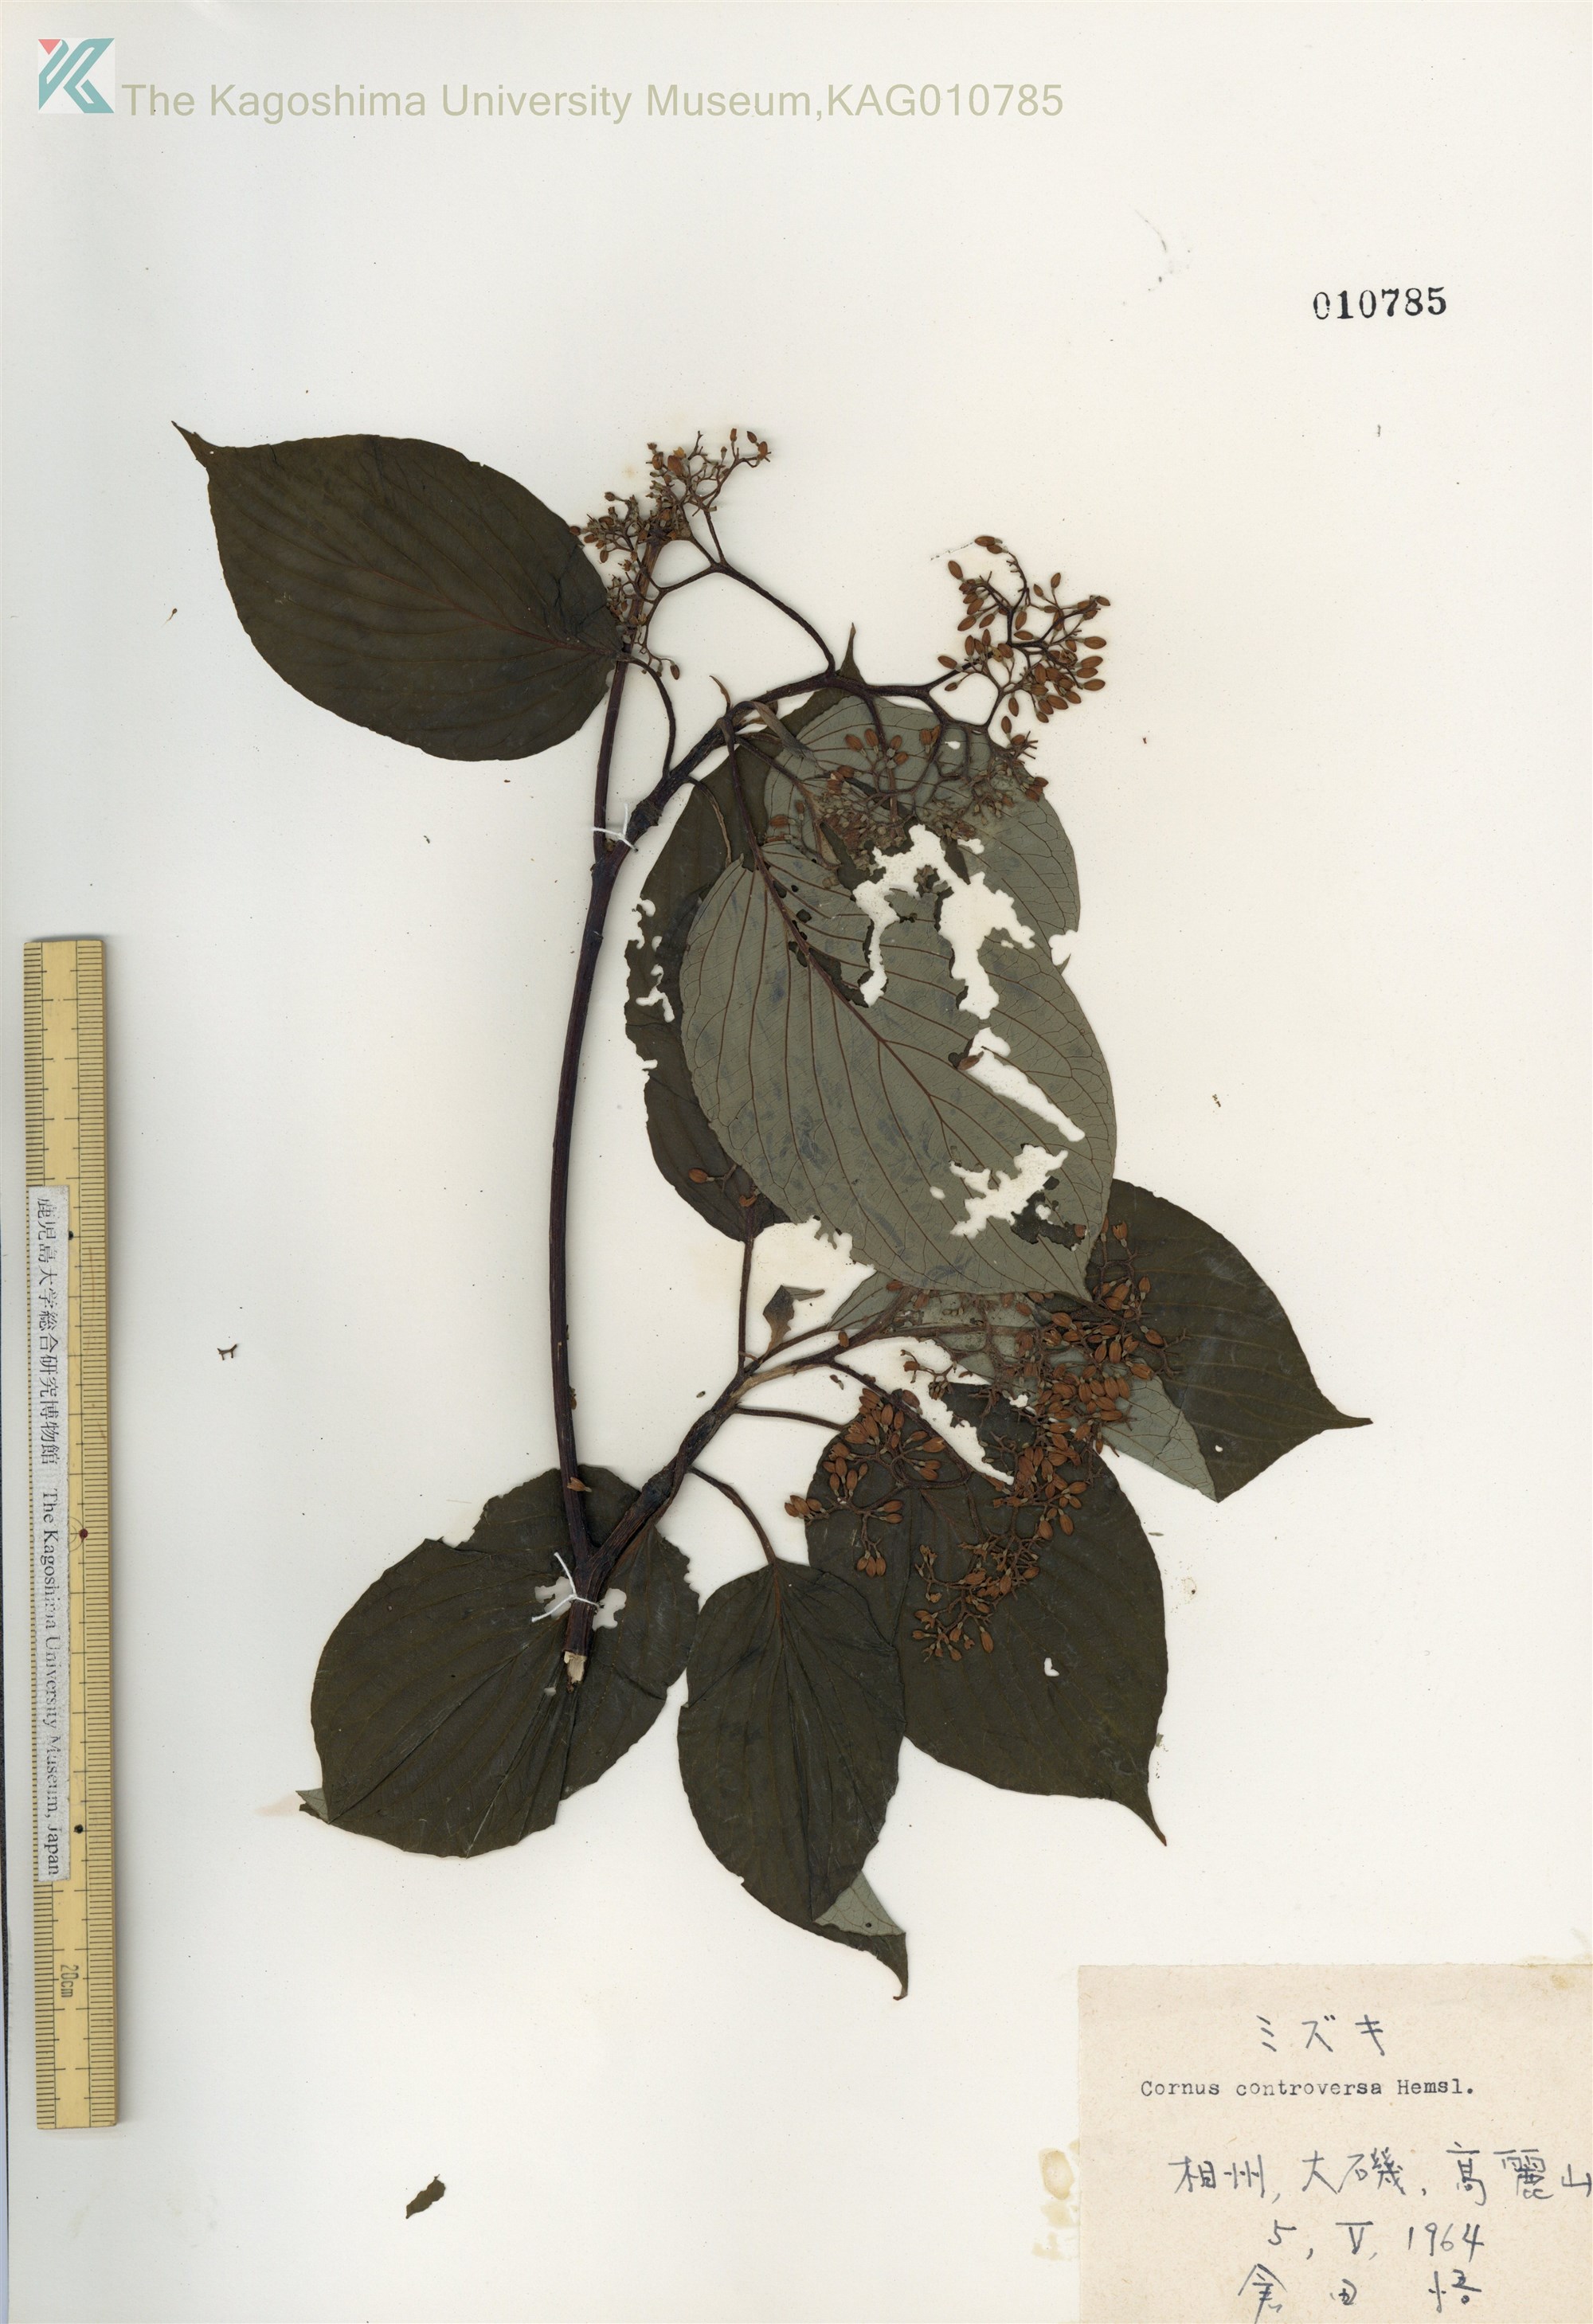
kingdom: Plantae
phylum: Tracheophyta
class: Magnoliopsida
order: Cornales
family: Cornaceae
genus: Cornus
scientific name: Cornus controversa
